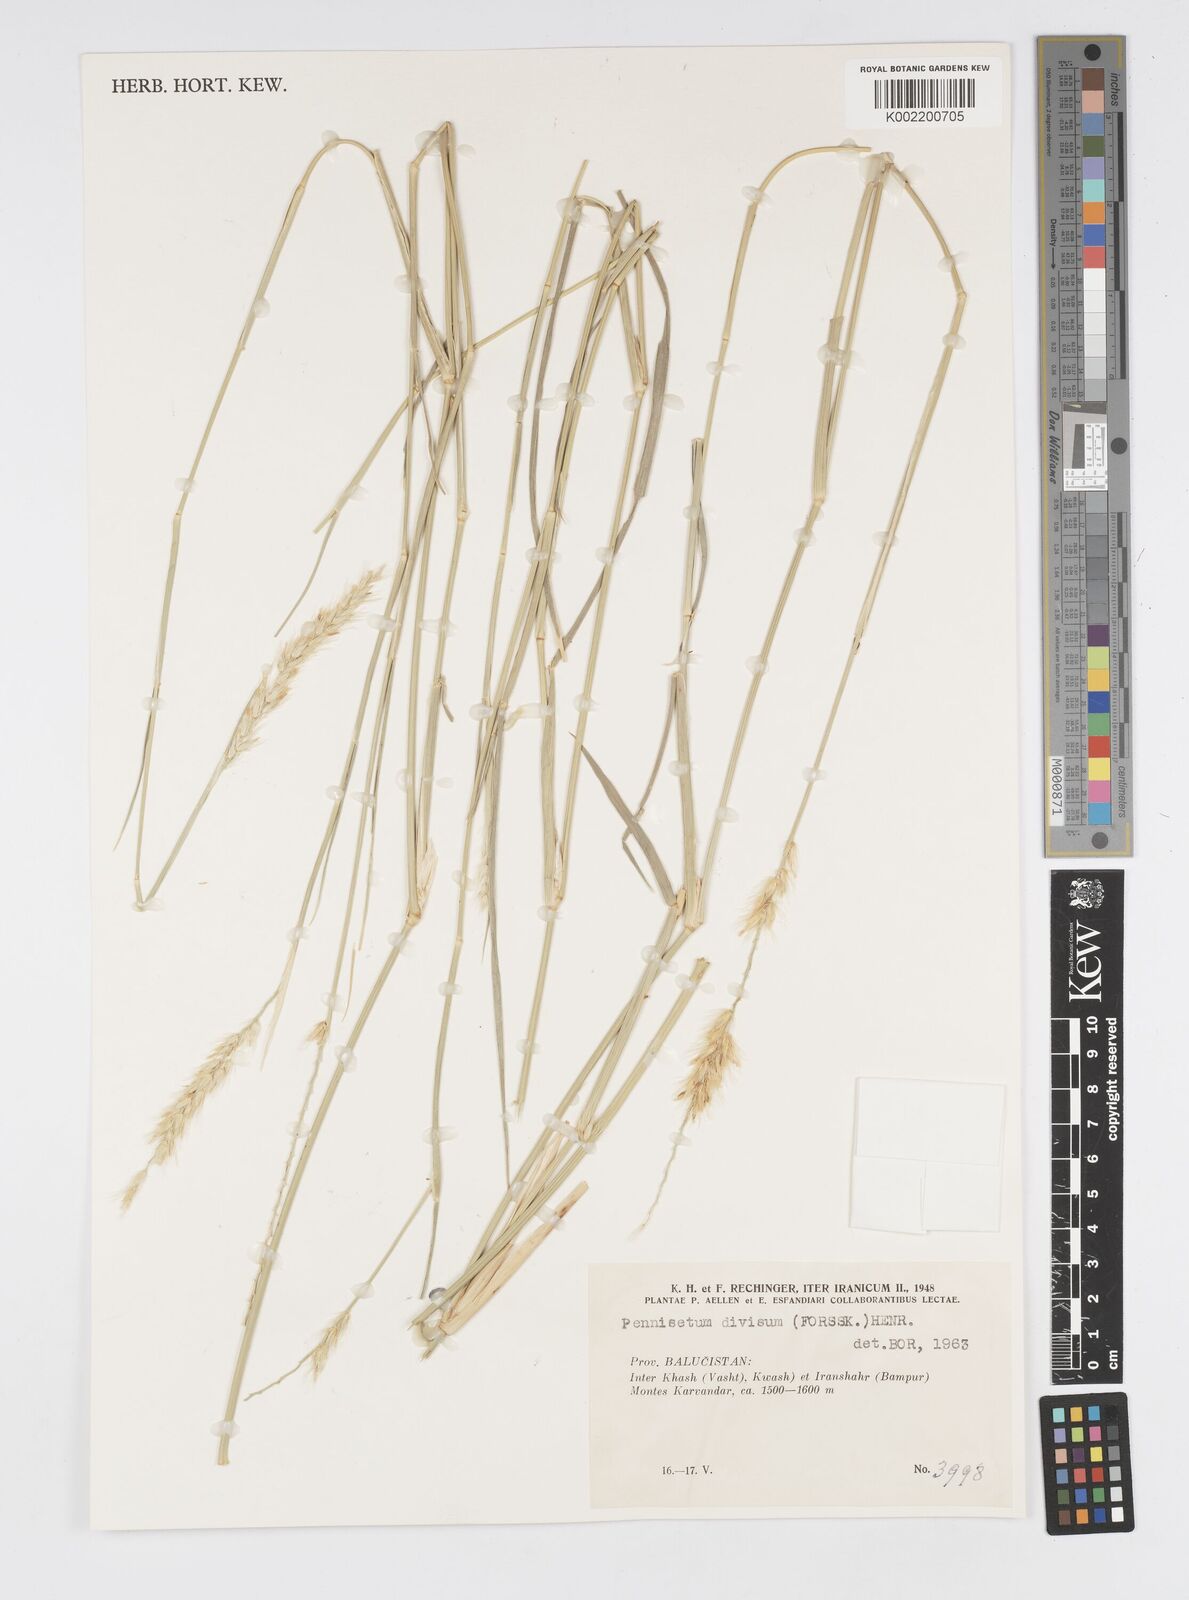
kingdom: Plantae
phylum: Tracheophyta
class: Liliopsida
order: Poales
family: Poaceae
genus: Cenchrus
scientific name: Cenchrus divisus
